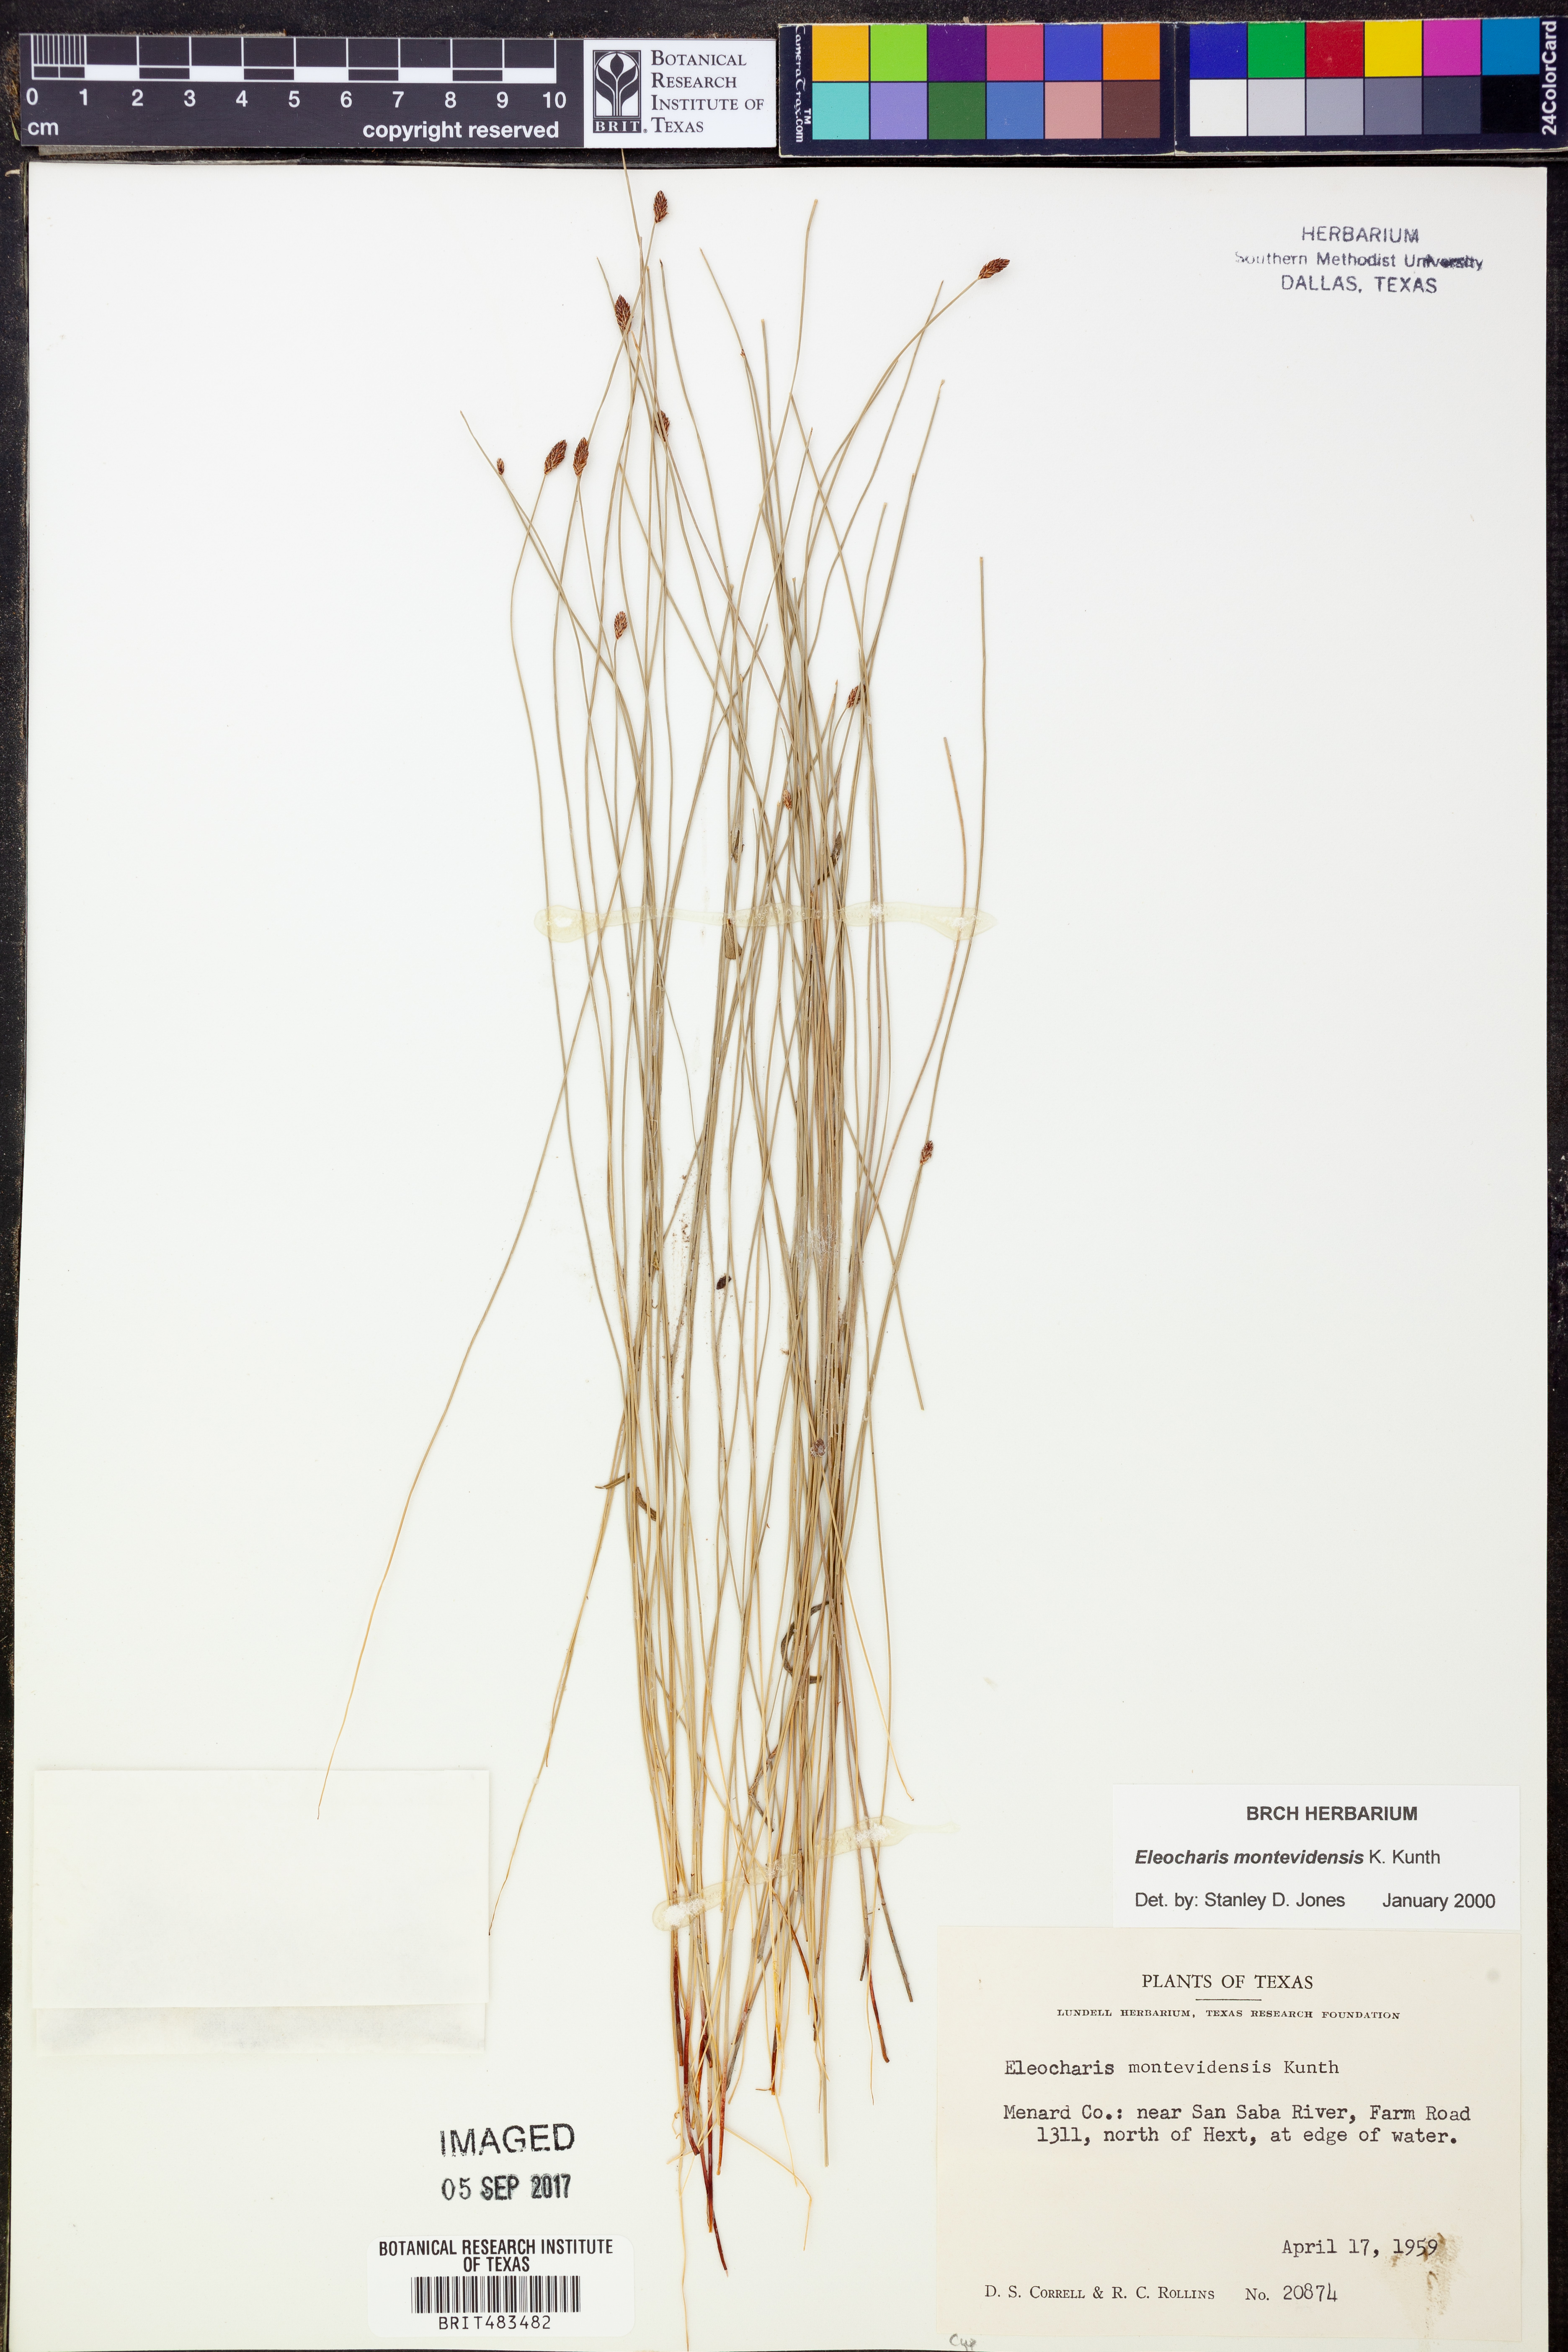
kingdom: Plantae
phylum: Tracheophyta
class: Liliopsida
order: Poales
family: Cyperaceae
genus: Eleocharis
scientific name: Eleocharis montevidensis
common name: Sand spike-rush
